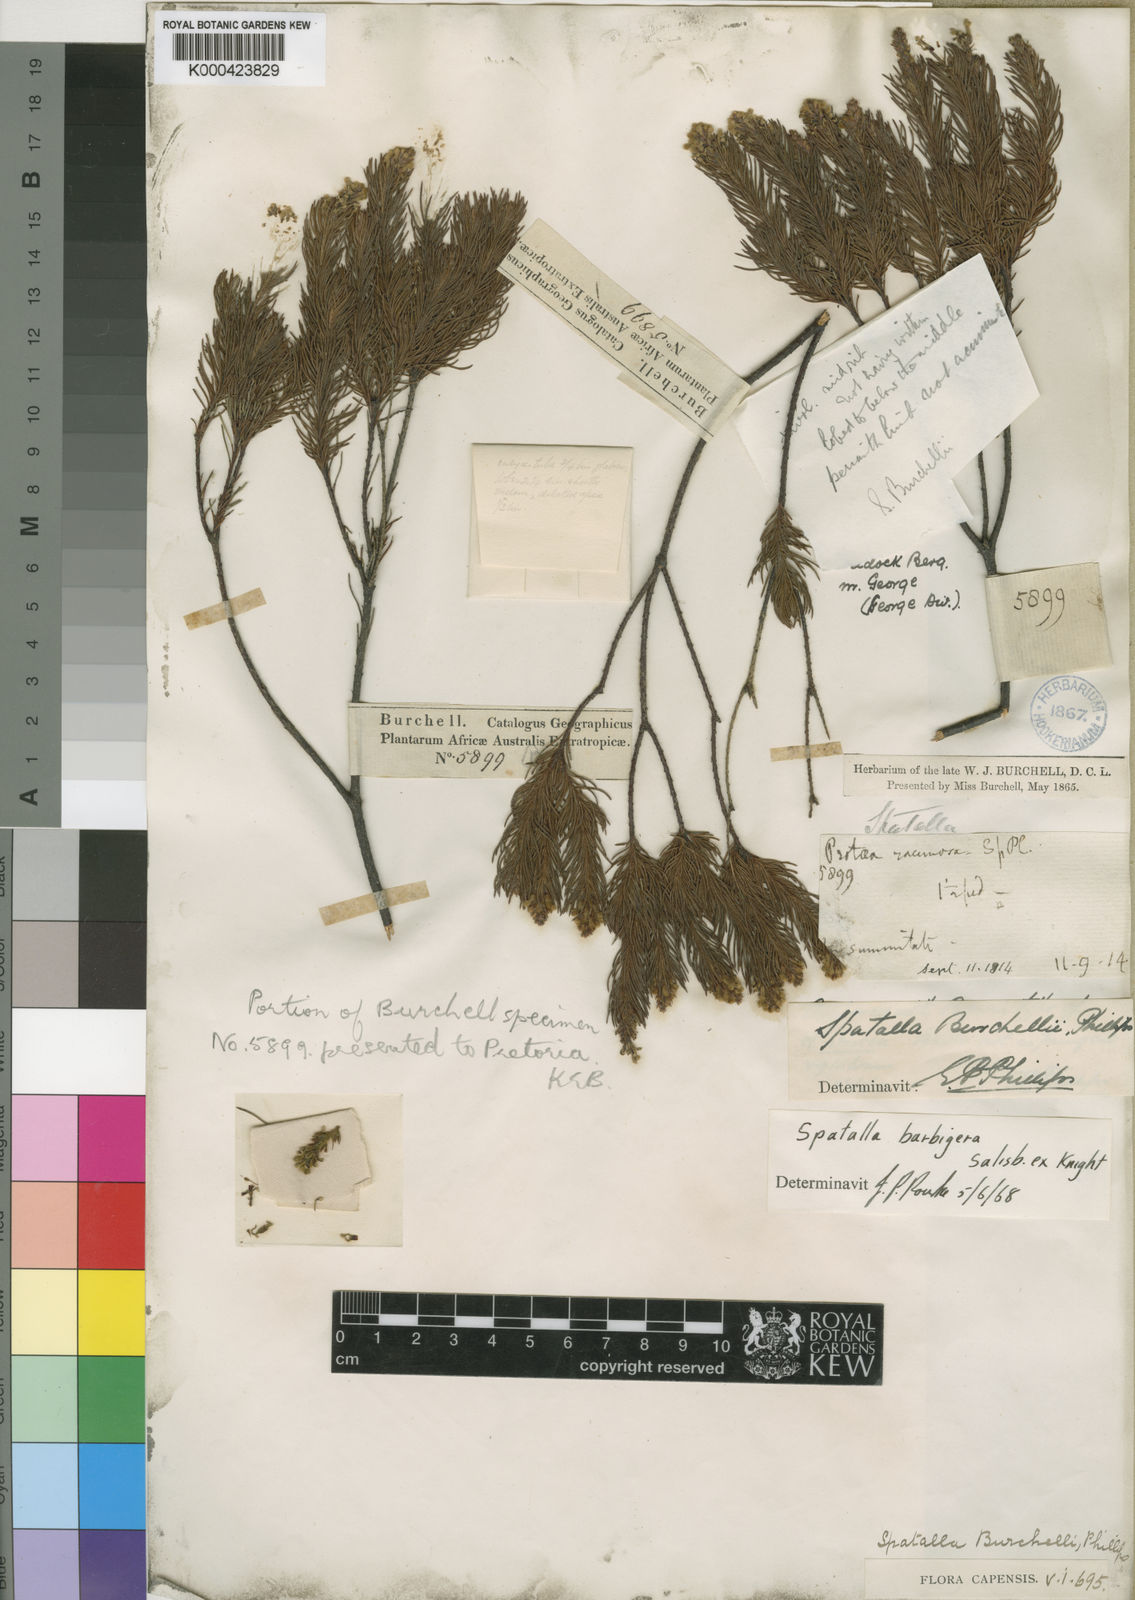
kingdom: Plantae
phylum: Tracheophyta
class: Magnoliopsida
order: Proteales
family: Proteaceae
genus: Spatalla
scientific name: Spatalla barbigera
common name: Fine-leaf spoon
